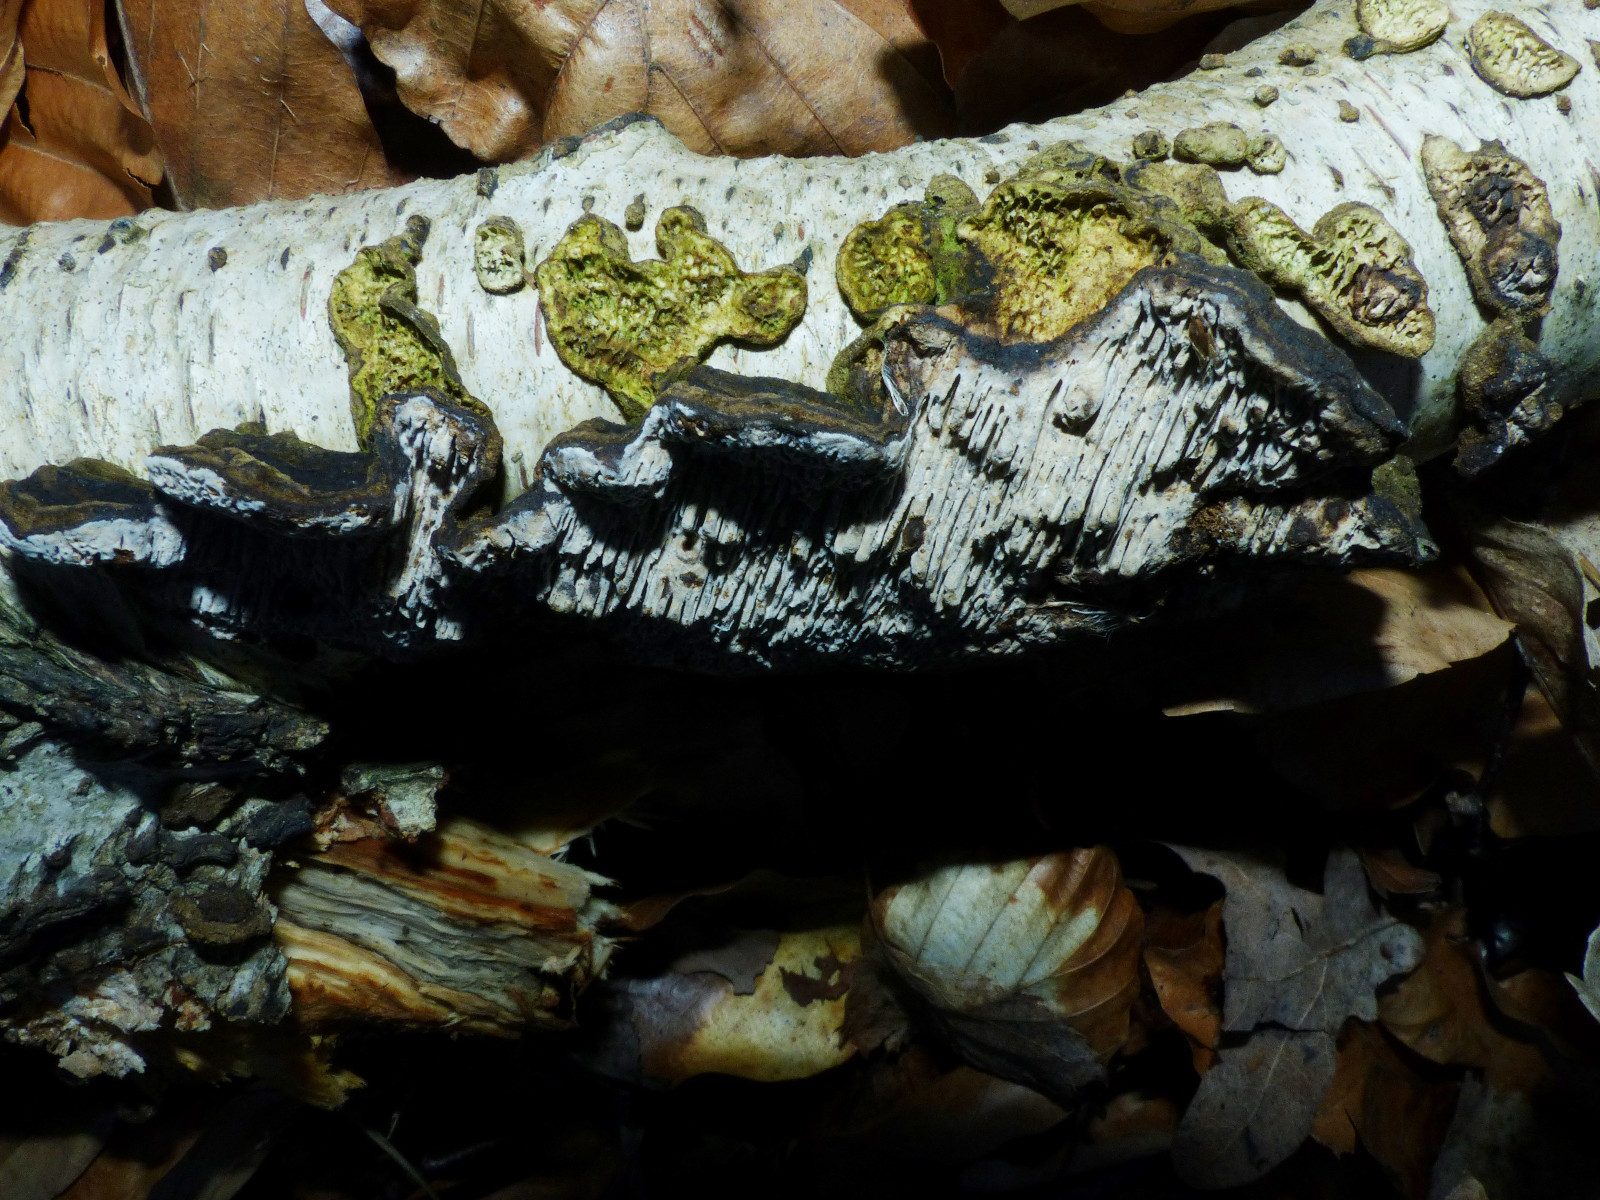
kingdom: Fungi
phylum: Basidiomycota
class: Agaricomycetes
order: Polyporales
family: Polyporaceae
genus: Podofomes
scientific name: Podofomes mollis
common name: blød begporesvamp
